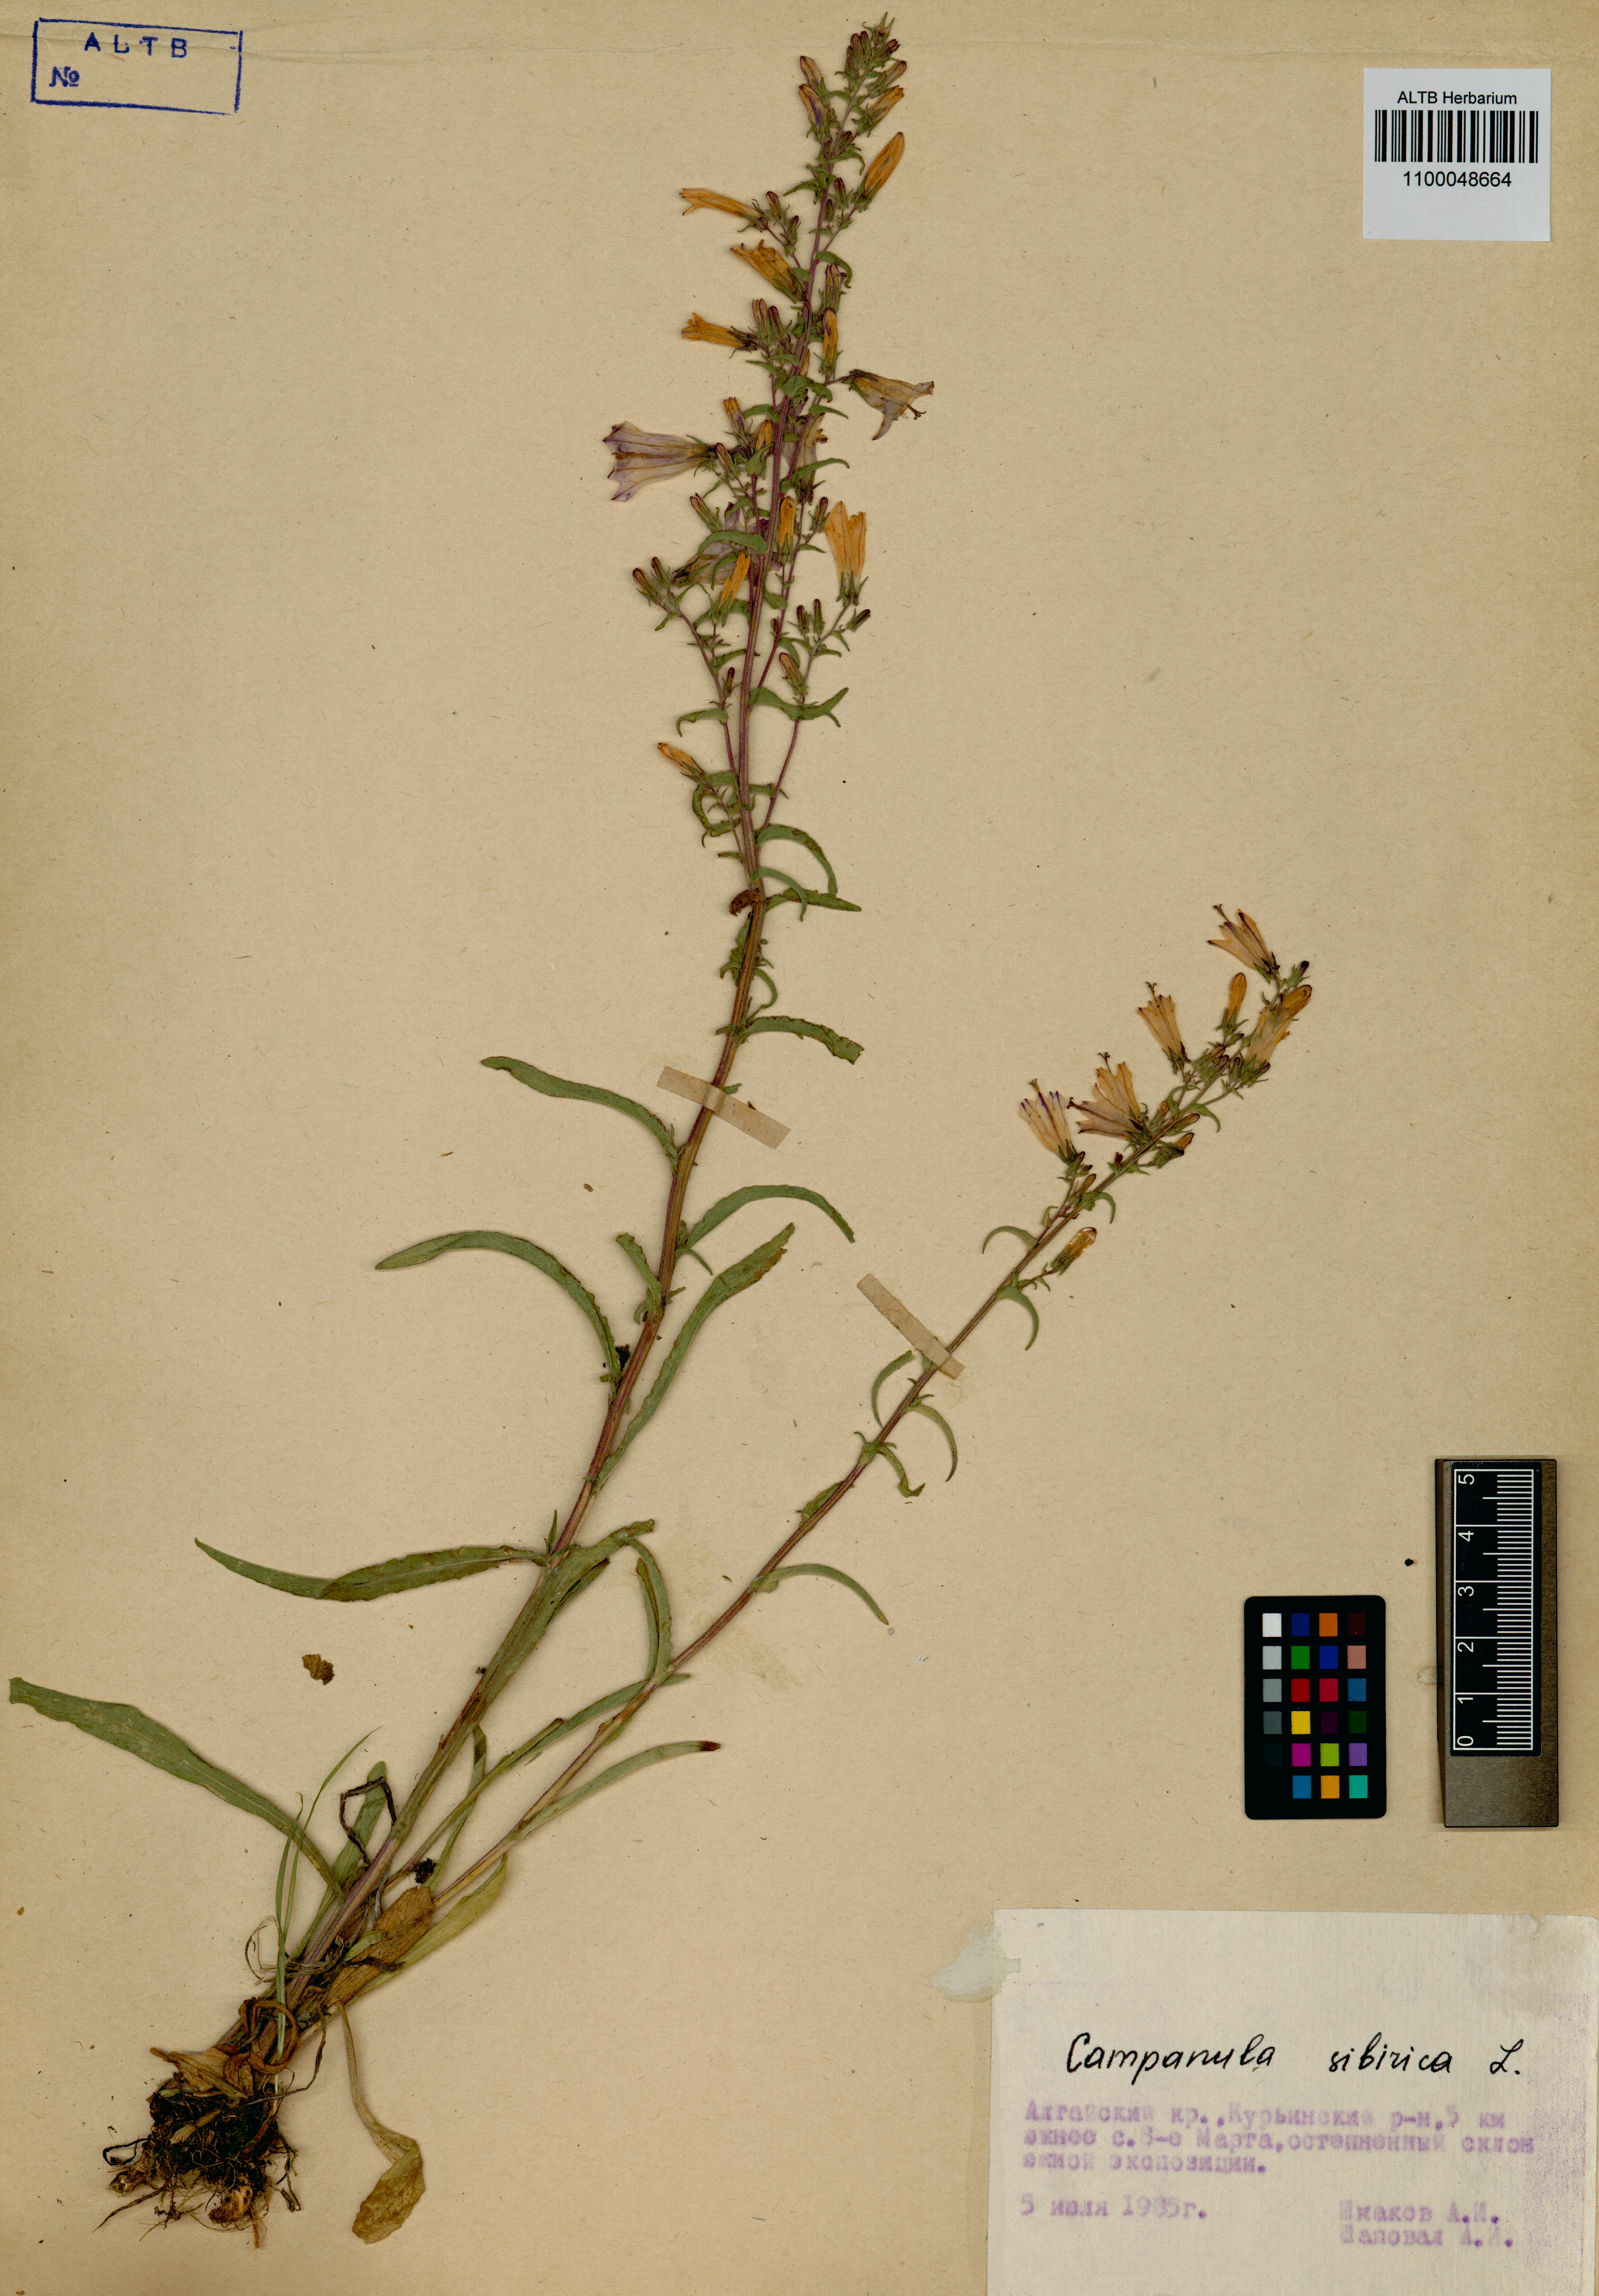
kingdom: Plantae
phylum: Tracheophyta
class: Magnoliopsida
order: Asterales
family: Campanulaceae
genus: Campanula
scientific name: Campanula sibirica
